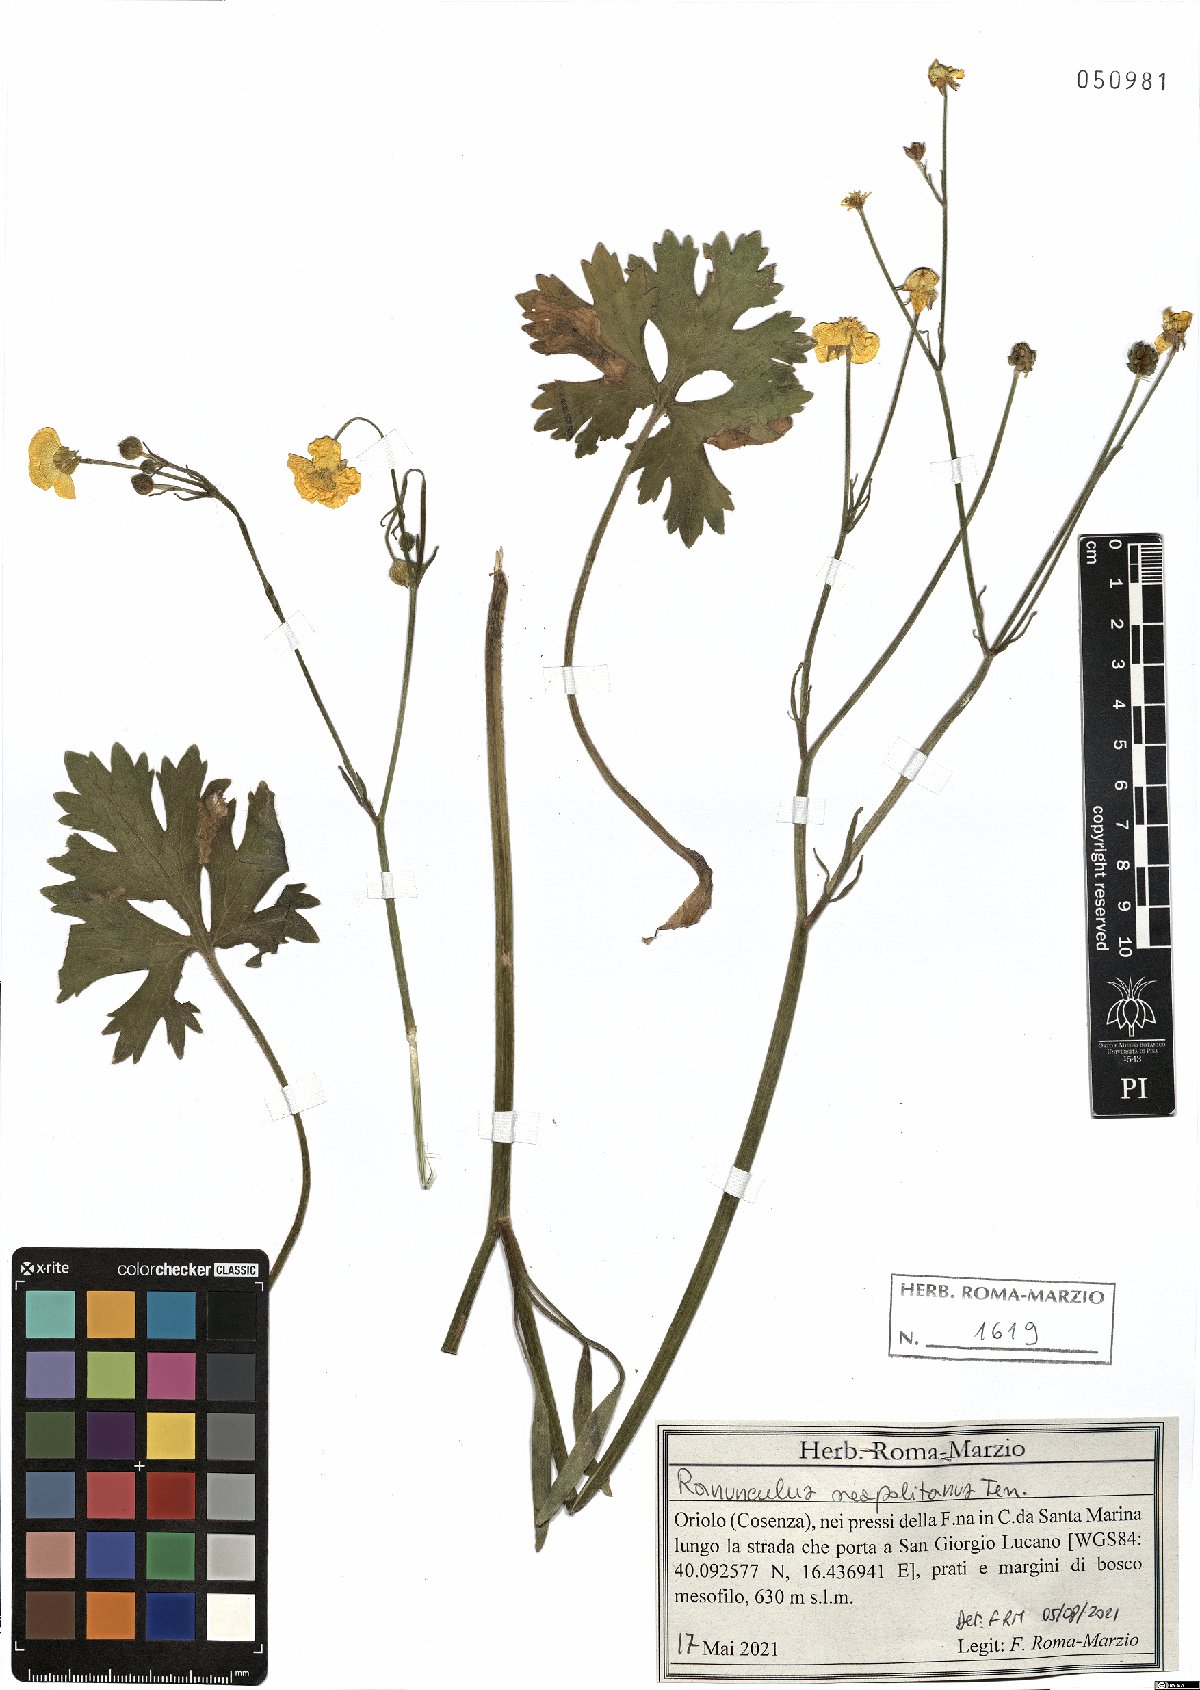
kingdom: Plantae
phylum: Tracheophyta
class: Magnoliopsida
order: Ranunculales
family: Ranunculaceae
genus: Ranunculus
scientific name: Ranunculus neapolitanus
